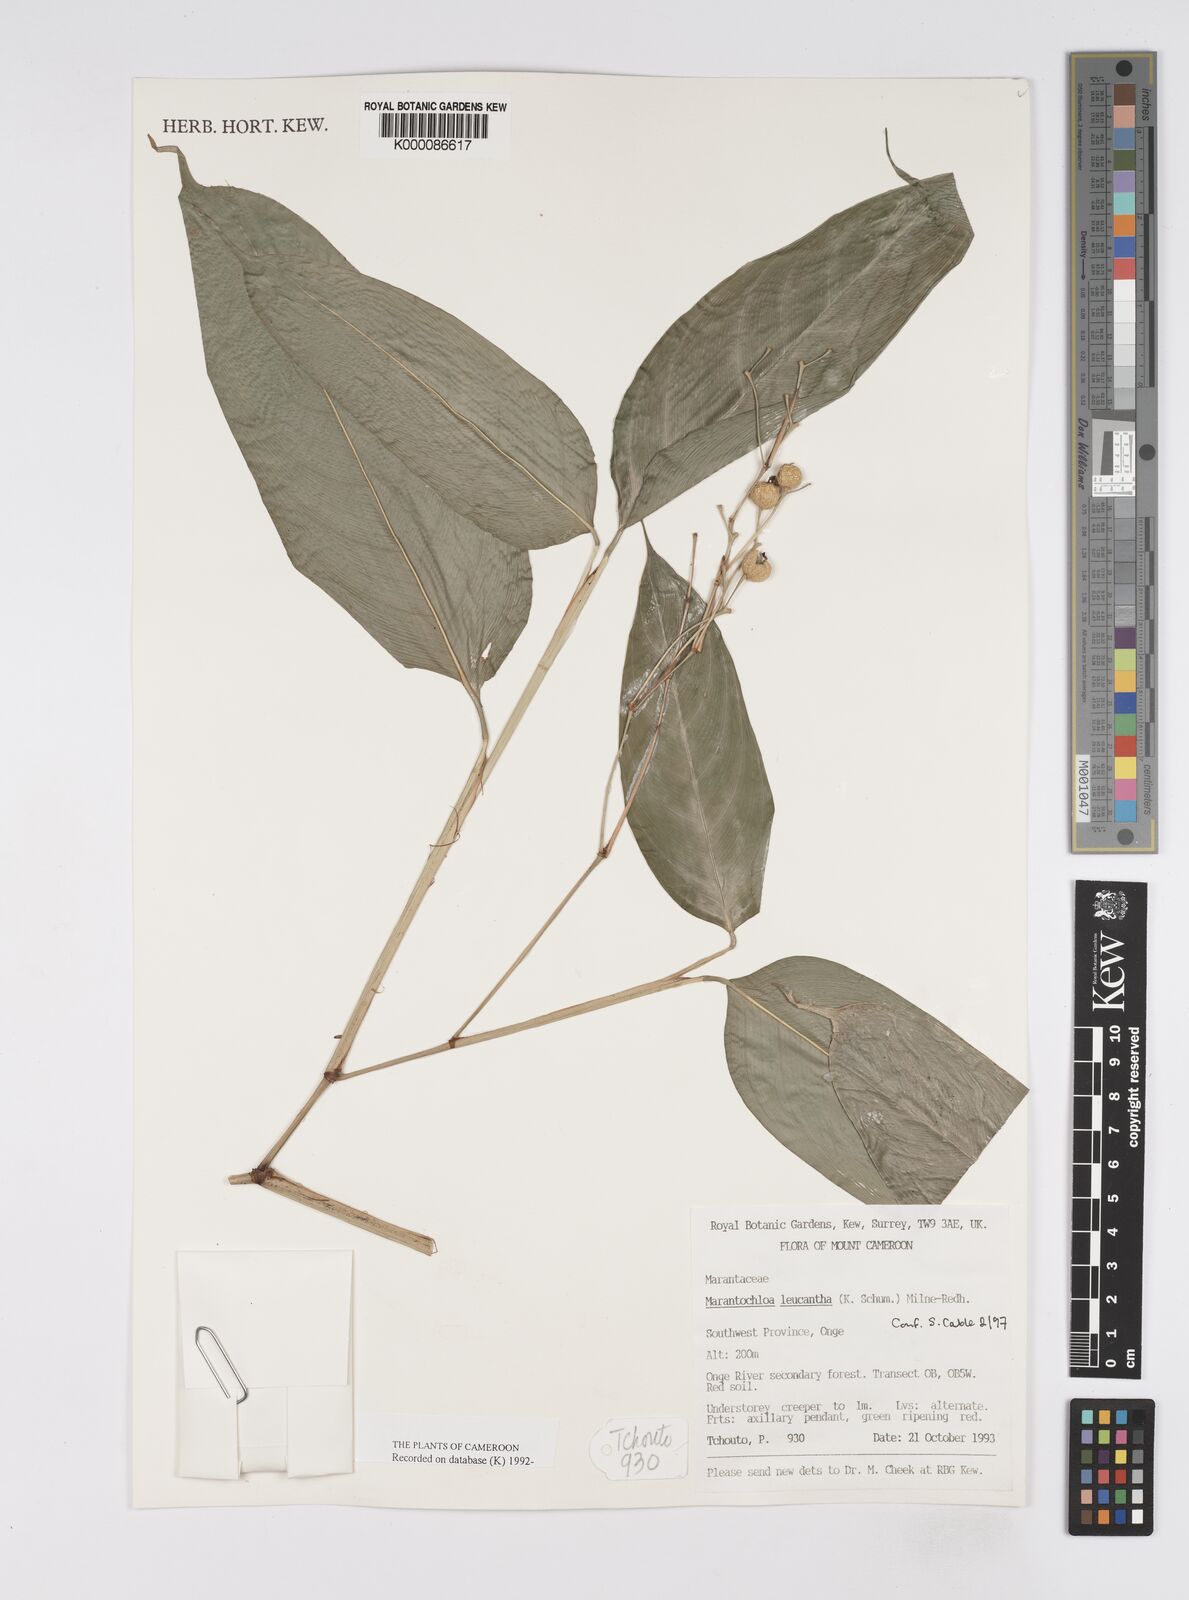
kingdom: Plantae
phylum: Tracheophyta
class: Liliopsida
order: Zingiberales
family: Marantaceae
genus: Marantochloa
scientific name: Marantochloa leucantha
